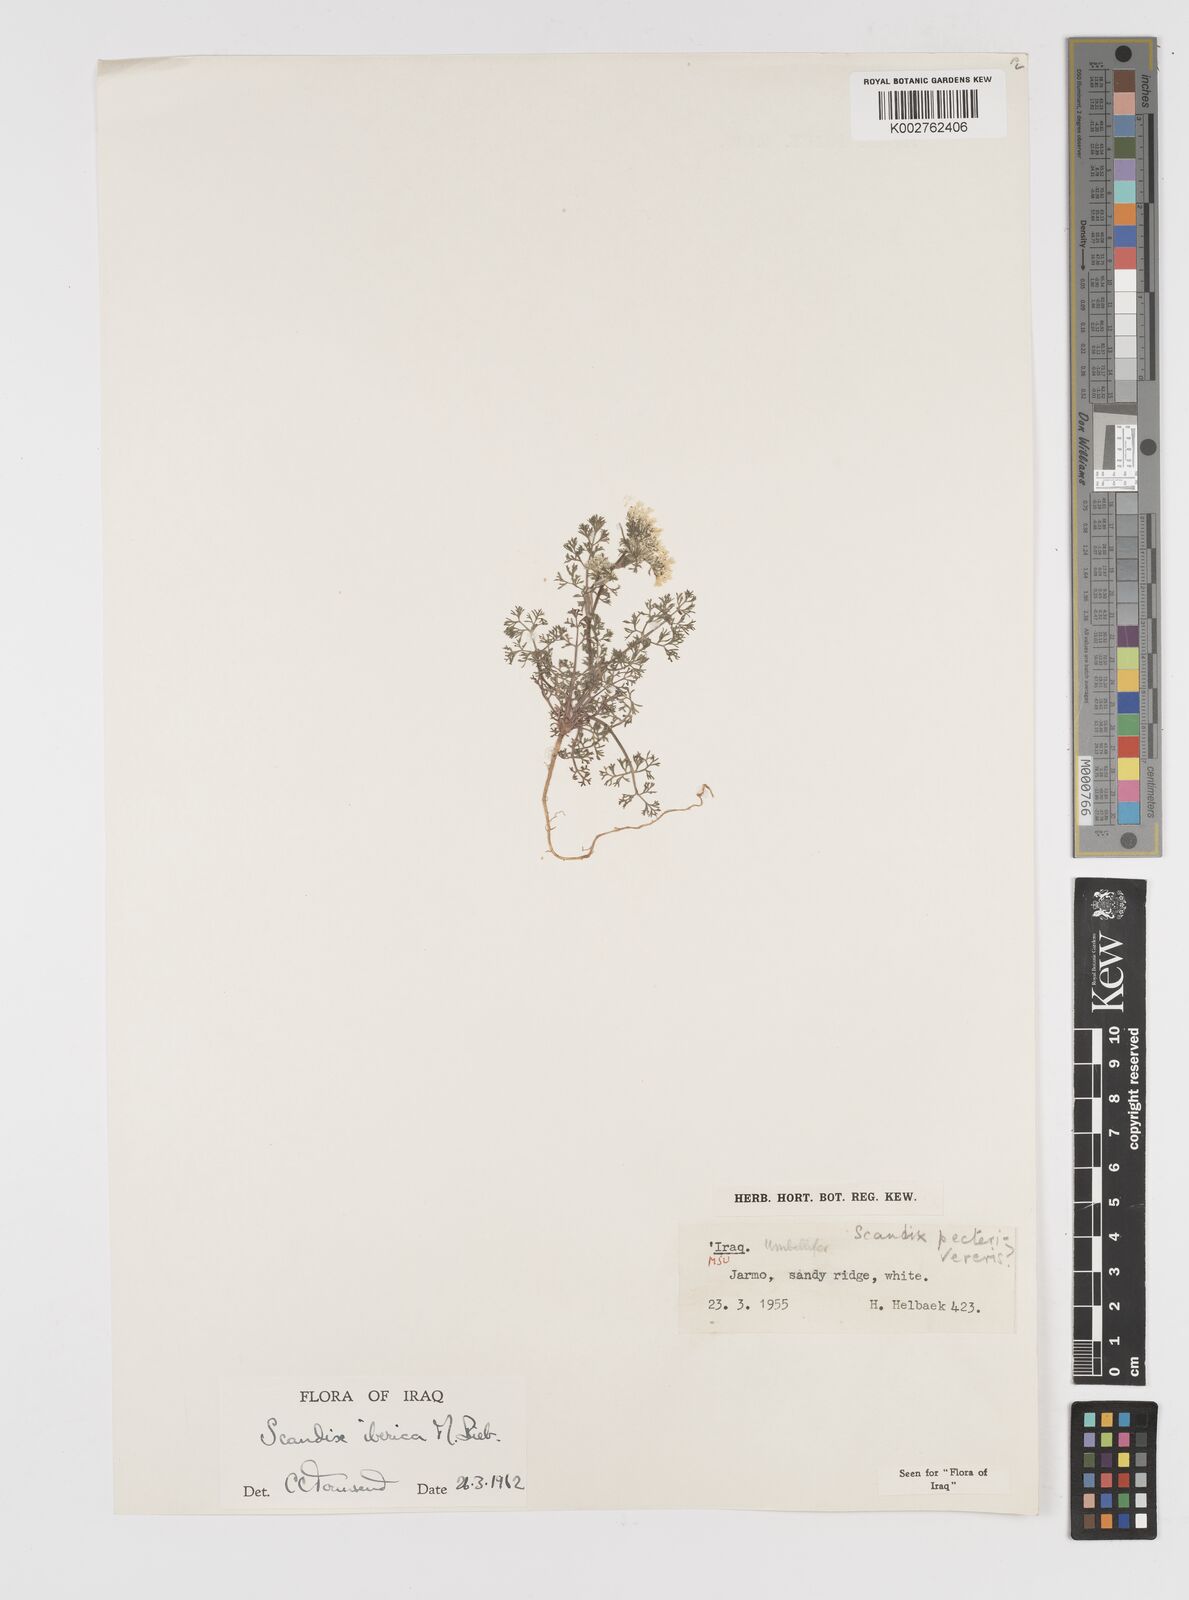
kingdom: Plantae
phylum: Tracheophyta
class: Magnoliopsida
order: Apiales
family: Apiaceae
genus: Scandix
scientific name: Scandix iberica
